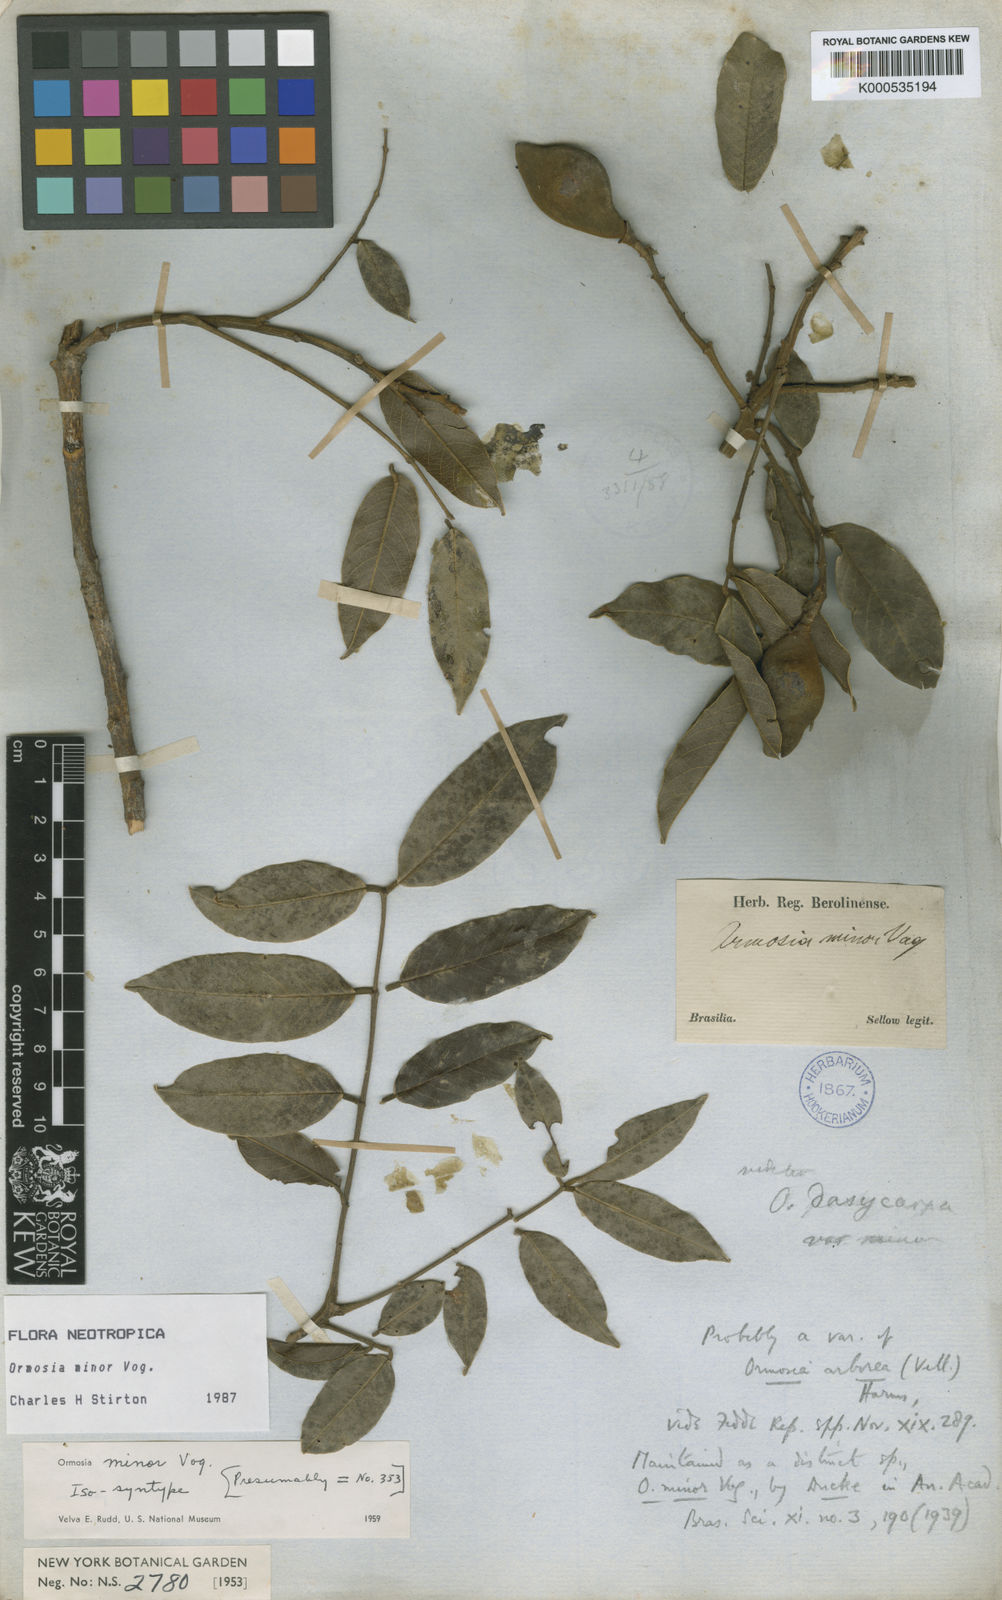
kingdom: Plantae
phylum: Tracheophyta
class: Magnoliopsida
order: Fabales
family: Fabaceae
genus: Ormosia
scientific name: Ormosia minor
